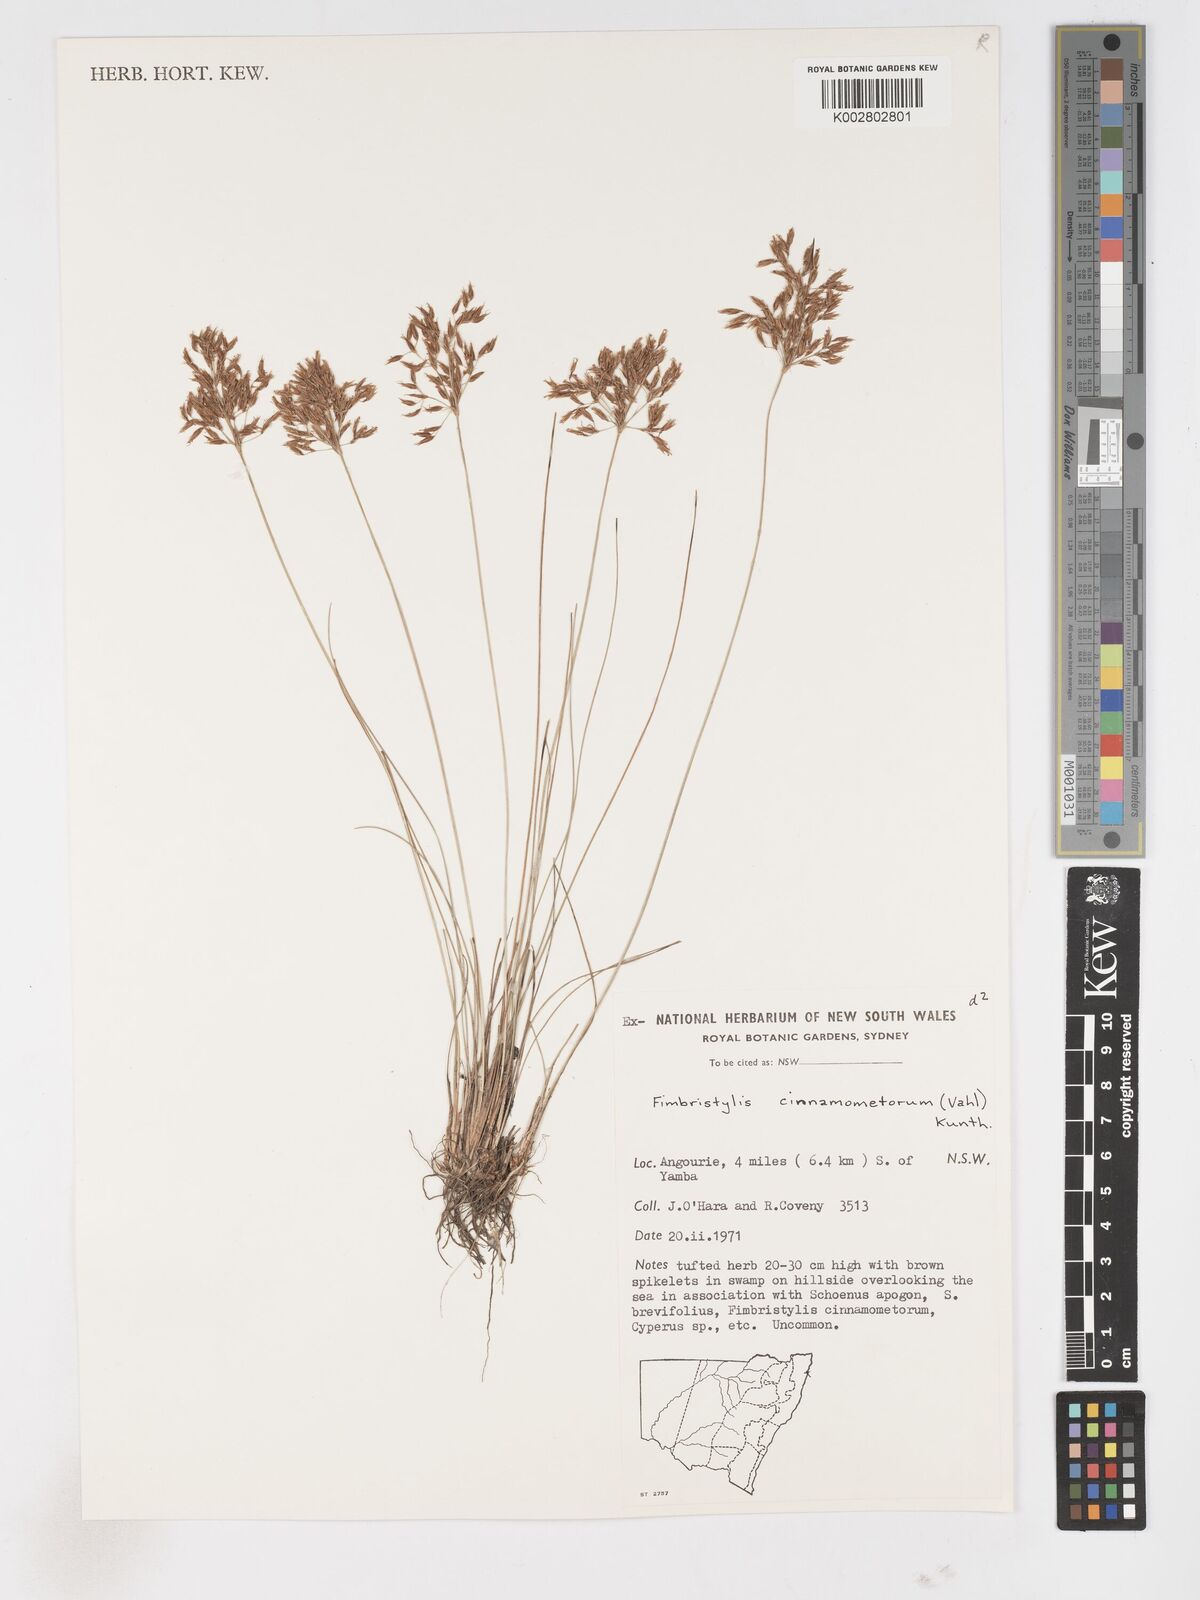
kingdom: Plantae
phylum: Tracheophyta
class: Liliopsida
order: Poales
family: Cyperaceae
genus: Fimbristylis
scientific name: Fimbristylis cinnamometorum
